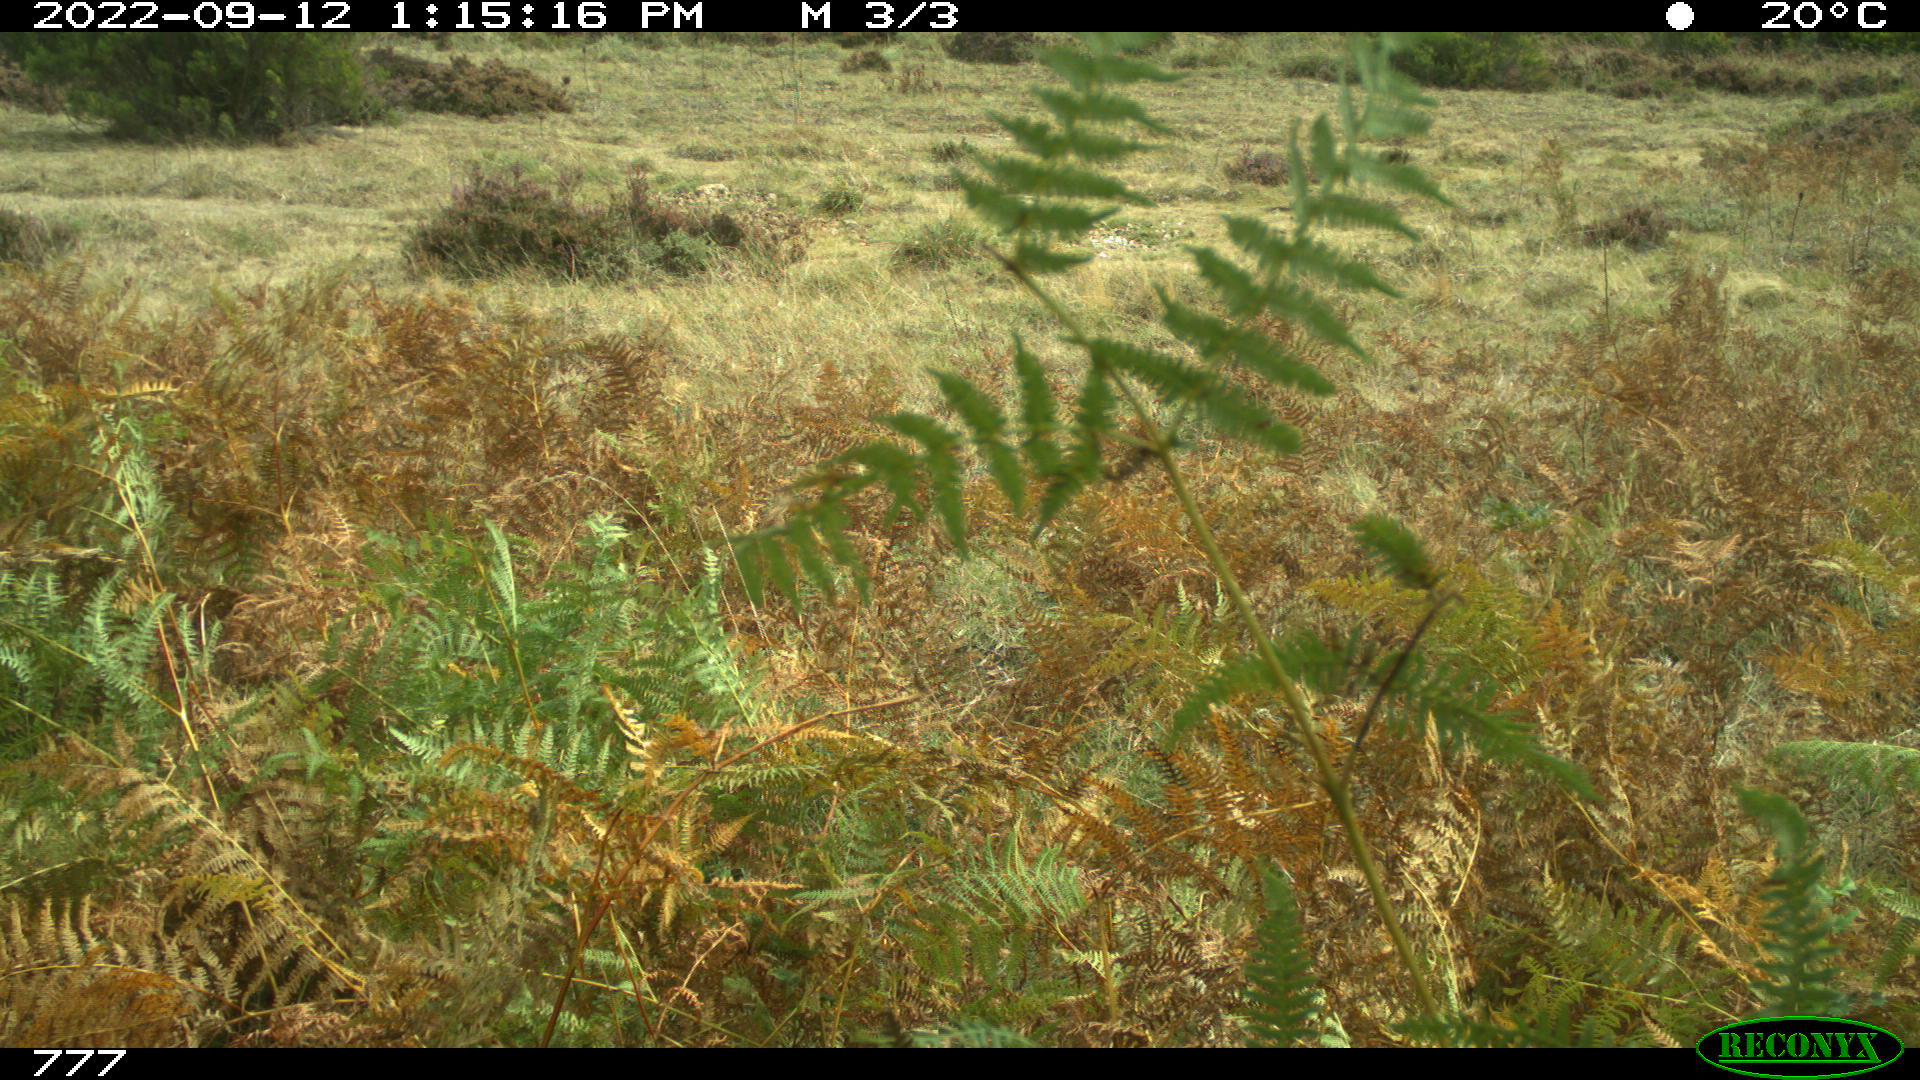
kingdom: Animalia
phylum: Chordata
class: Mammalia
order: Perissodactyla
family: Equidae
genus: Equus
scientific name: Equus caballus
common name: Horse
